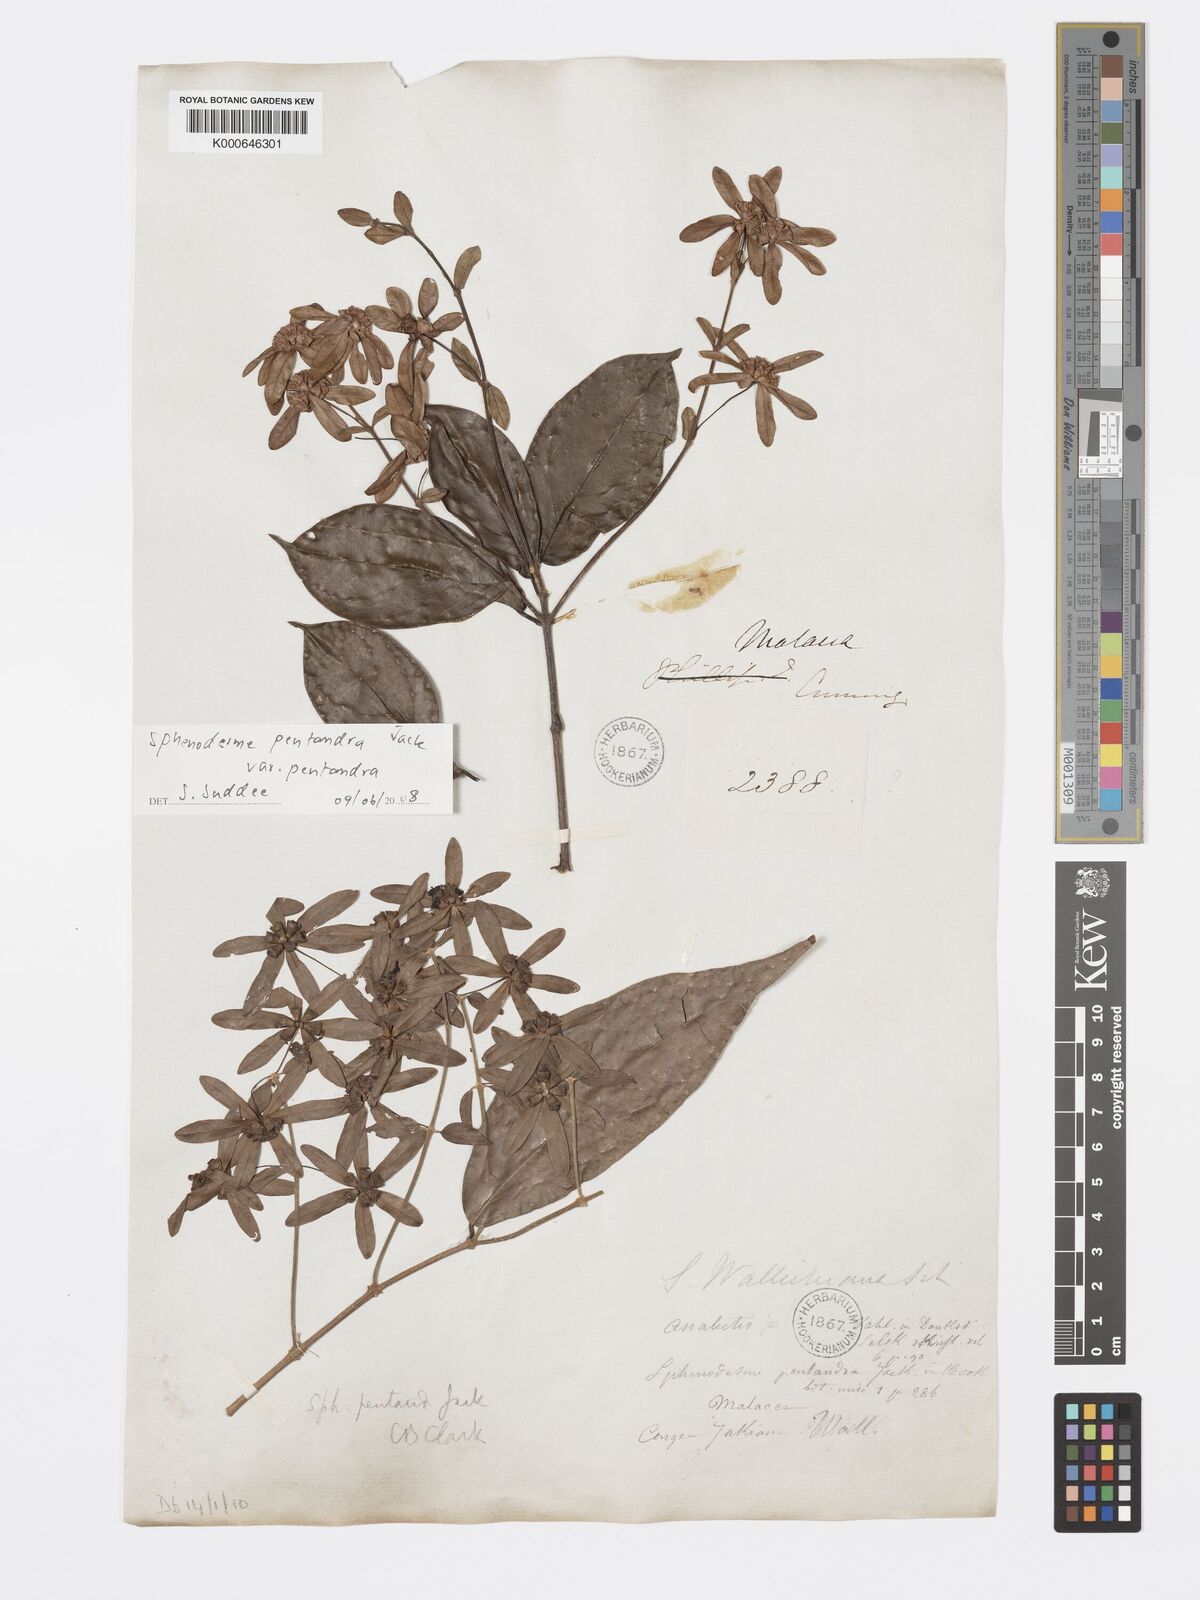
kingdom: Plantae
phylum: Tracheophyta
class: Magnoliopsida
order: Lamiales
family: Lamiaceae
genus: Sphenodesme
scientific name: Sphenodesme pentandra
